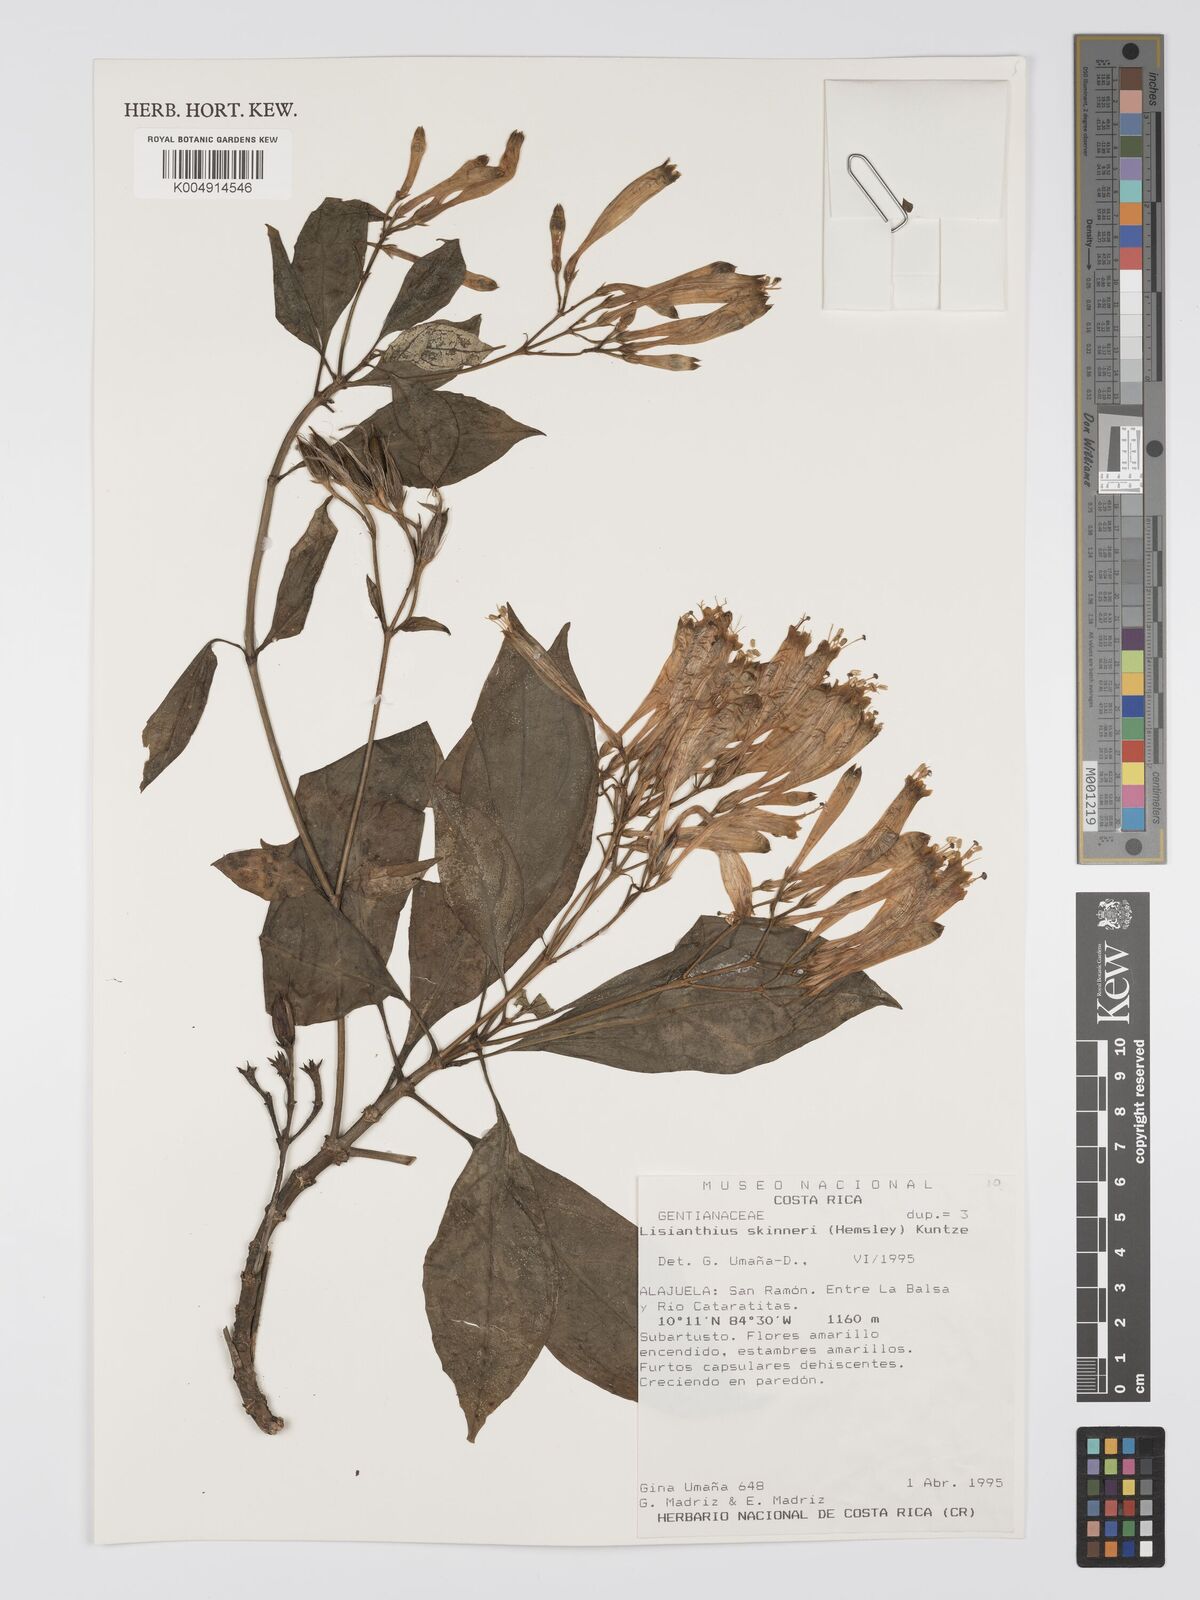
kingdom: Plantae
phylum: Tracheophyta
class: Magnoliopsida
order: Gentianales
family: Gentianaceae
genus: Lisianthus
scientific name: Lisianthus skinneri
